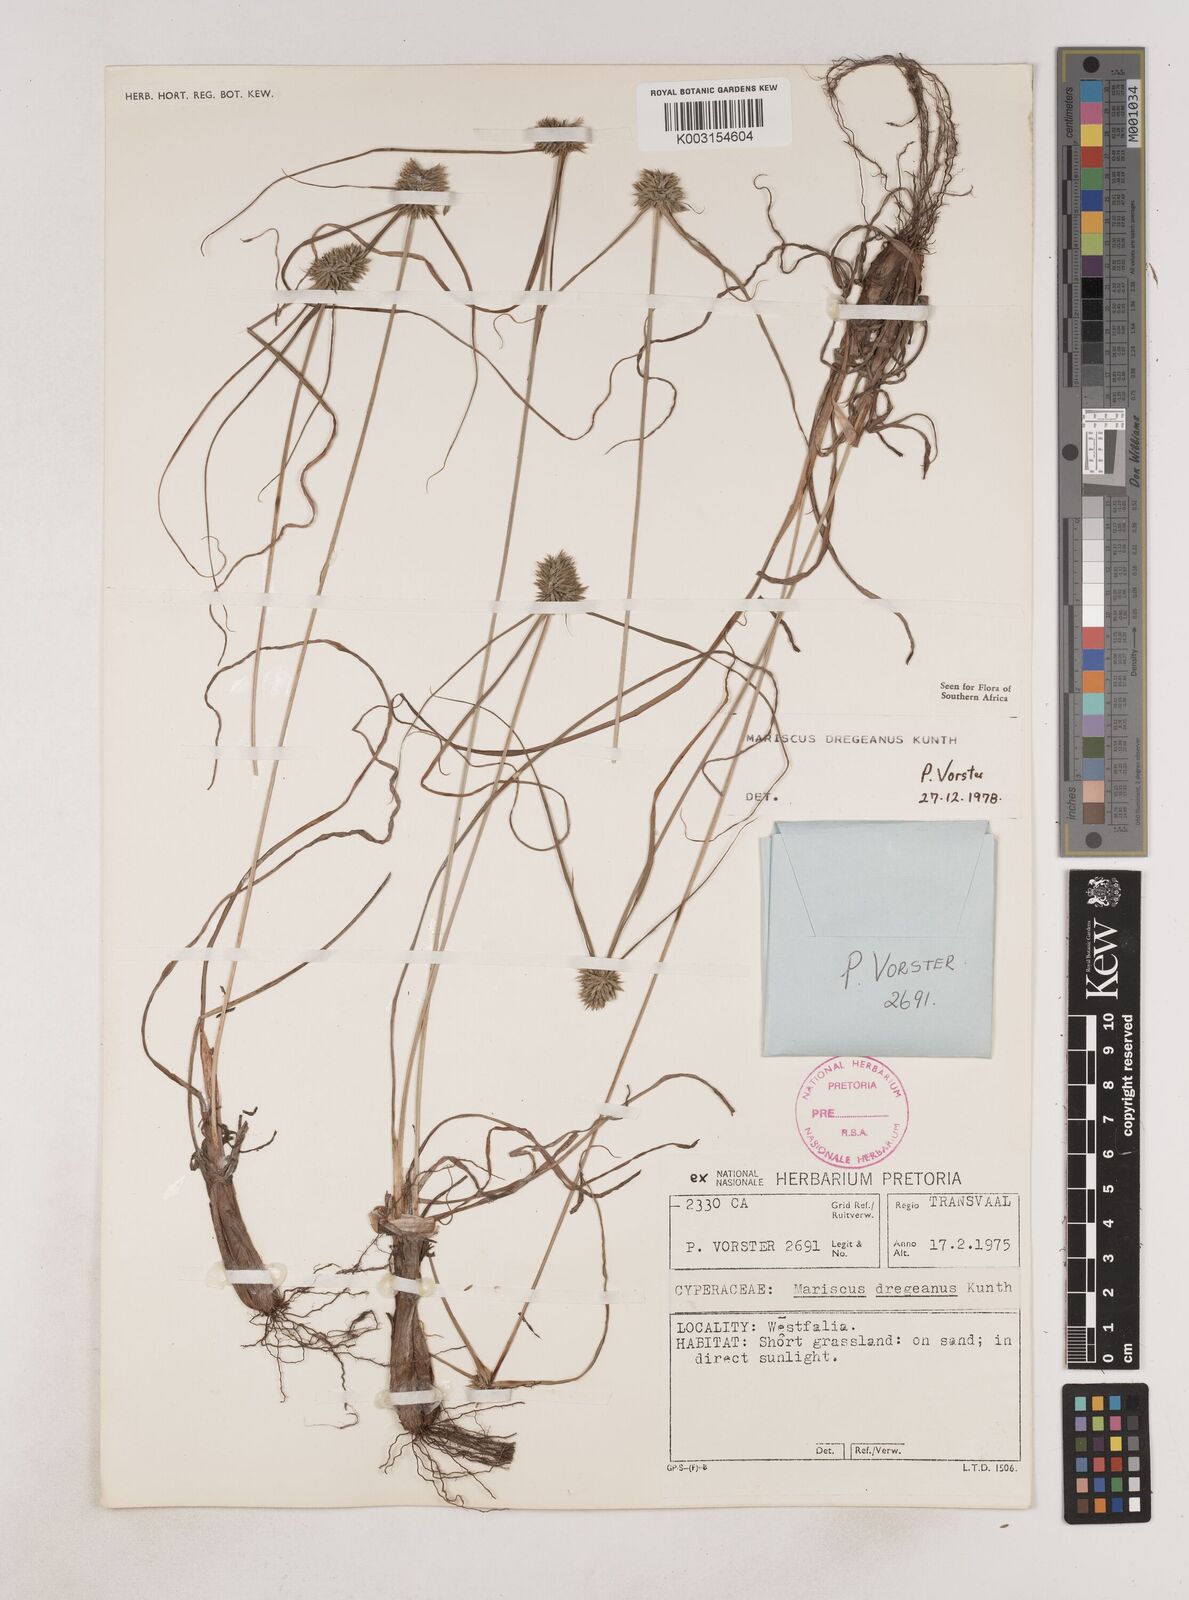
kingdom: Plantae
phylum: Tracheophyta
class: Liliopsida
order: Poales
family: Cyperaceae
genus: Cyperus
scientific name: Cyperus dubius
